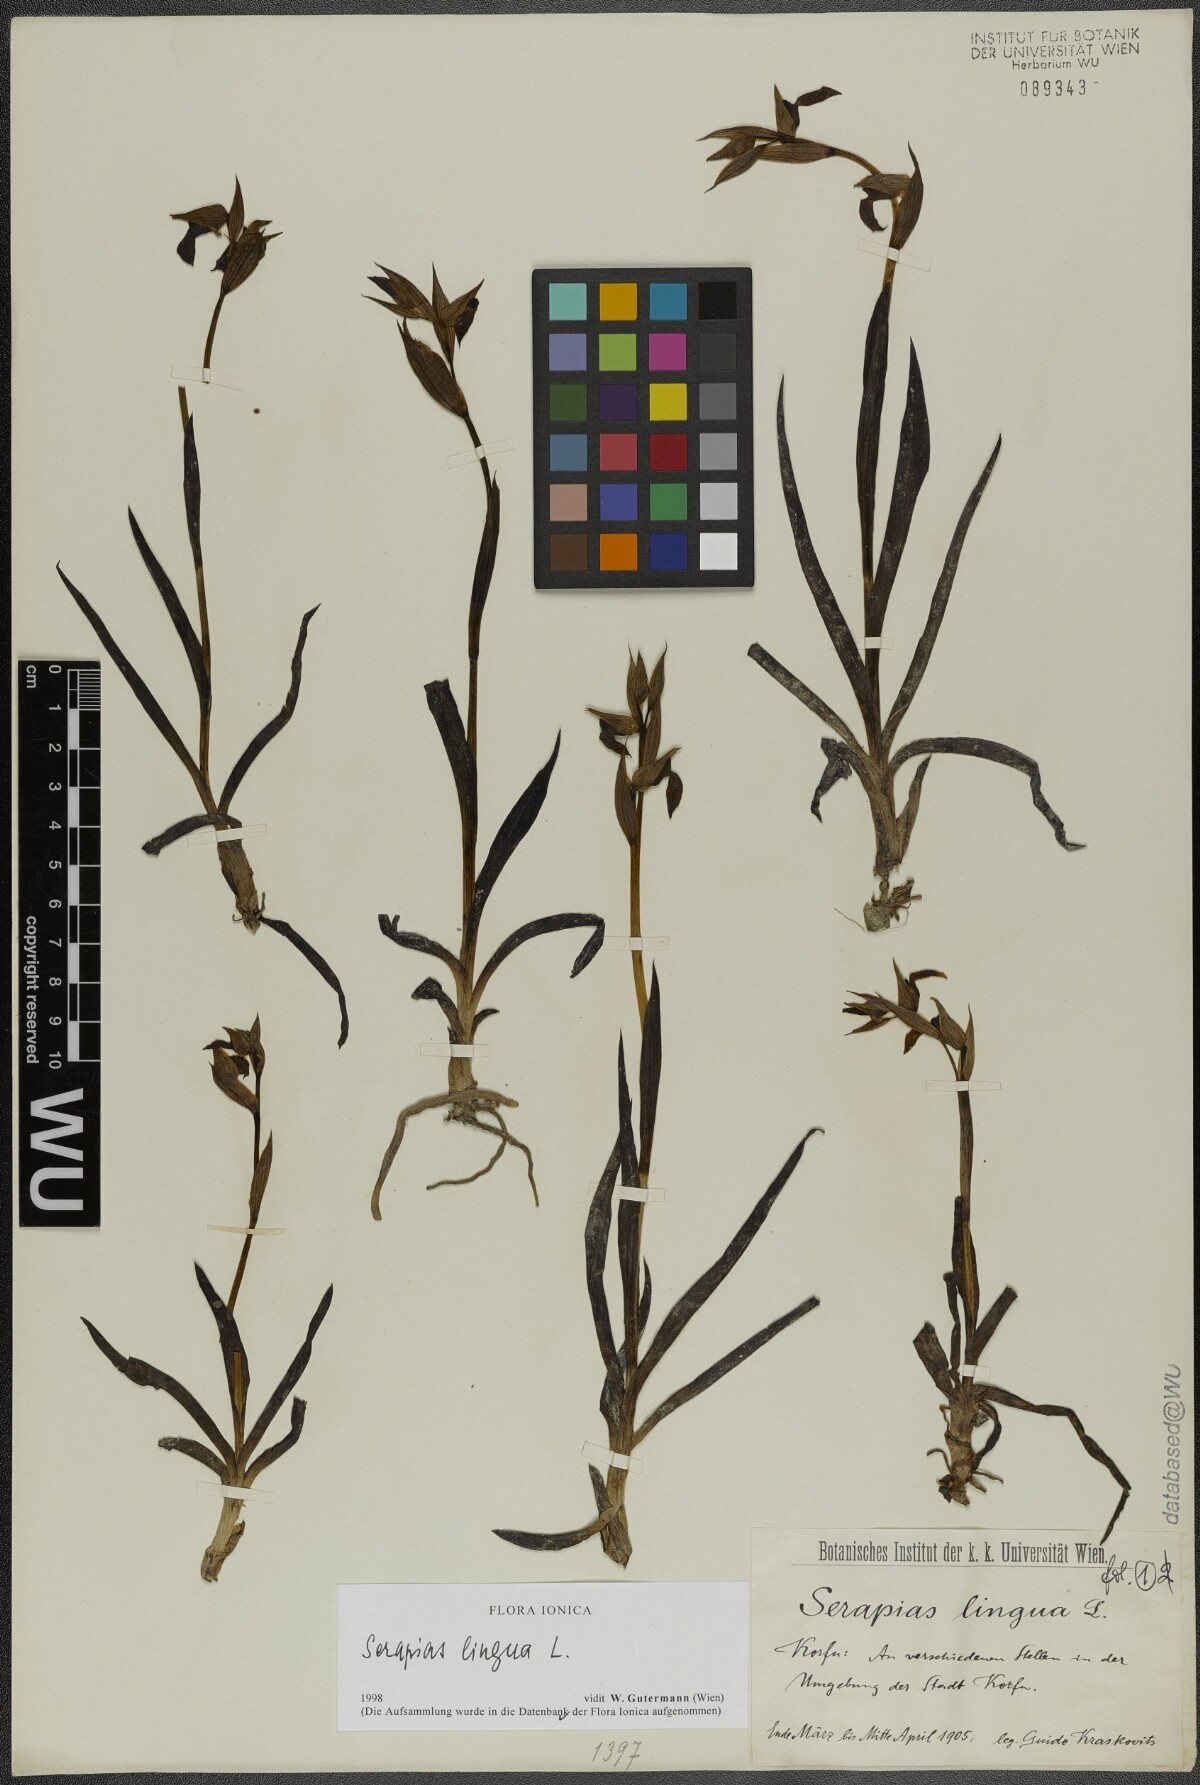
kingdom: Plantae
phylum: Tracheophyta
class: Liliopsida
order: Asparagales
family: Orchidaceae
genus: Serapias
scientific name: Serapias lingua
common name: Tongue-orchid
